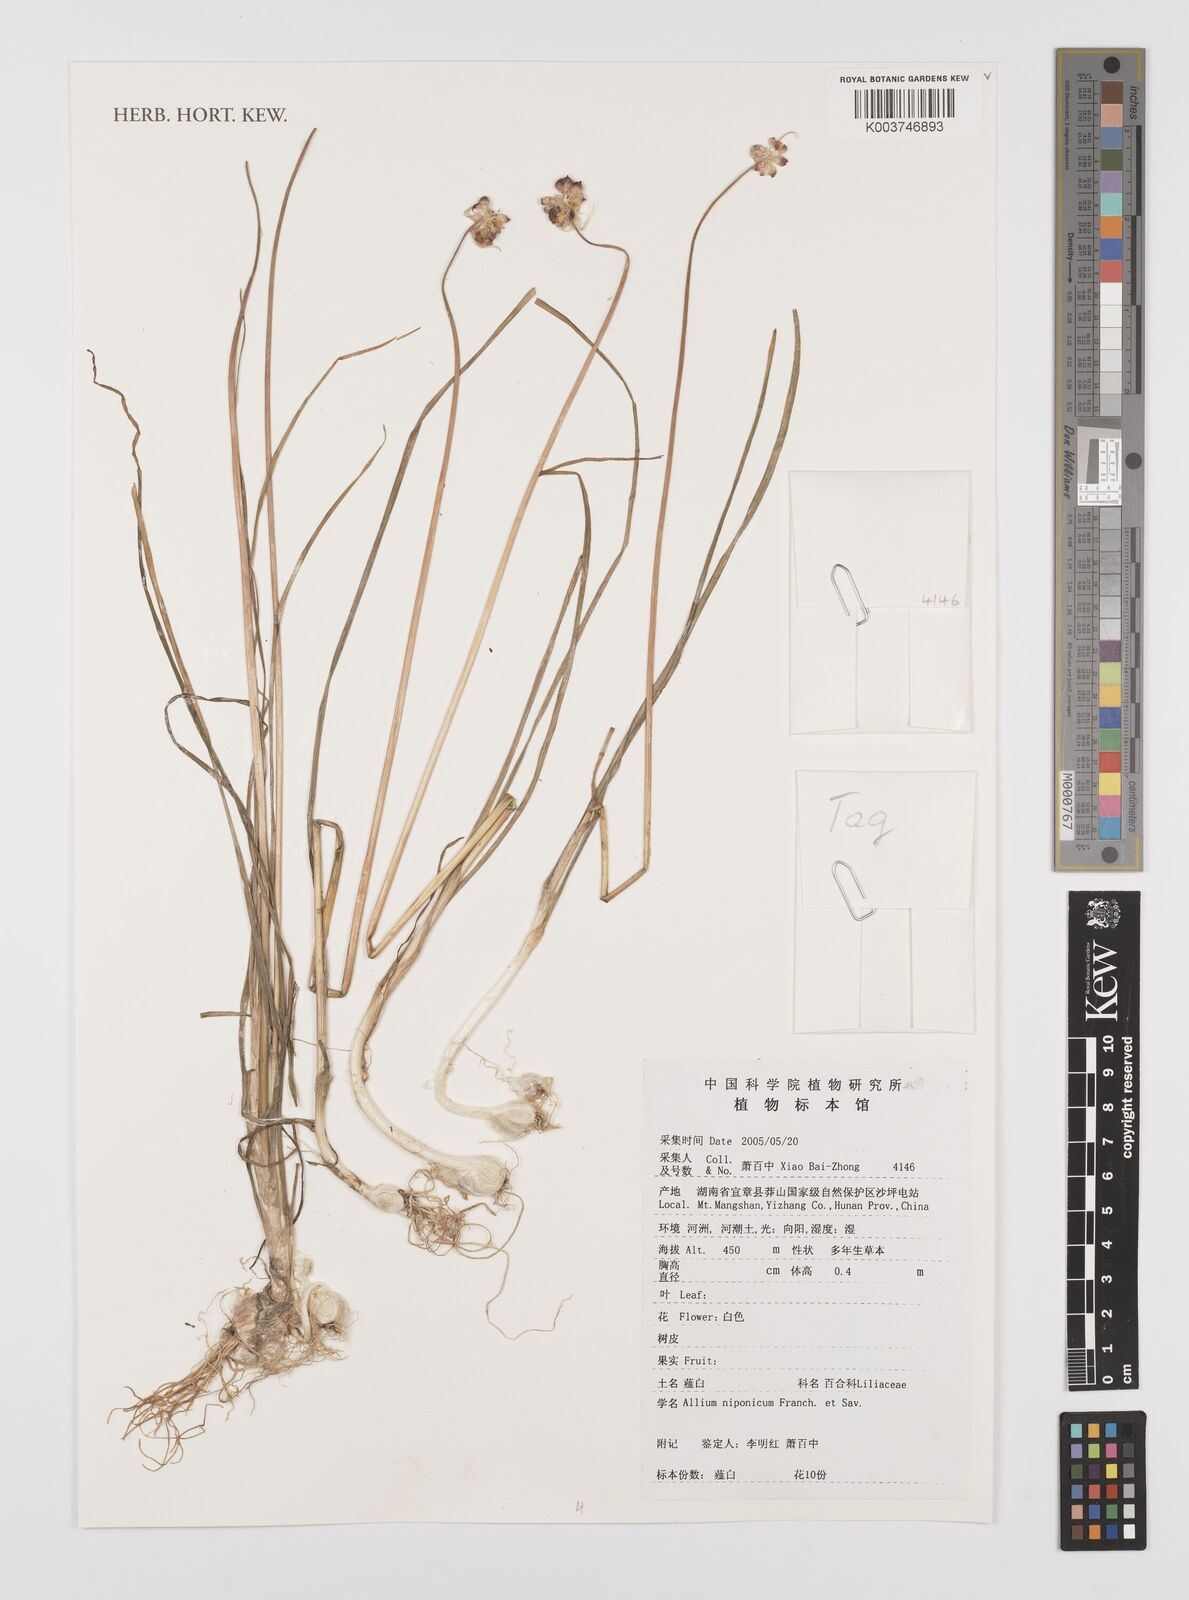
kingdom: Plantae
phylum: Tracheophyta
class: Liliopsida
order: Asparagales
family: Amaryllidaceae
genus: Allium
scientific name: Allium macrostemon
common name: Chinese garlic
